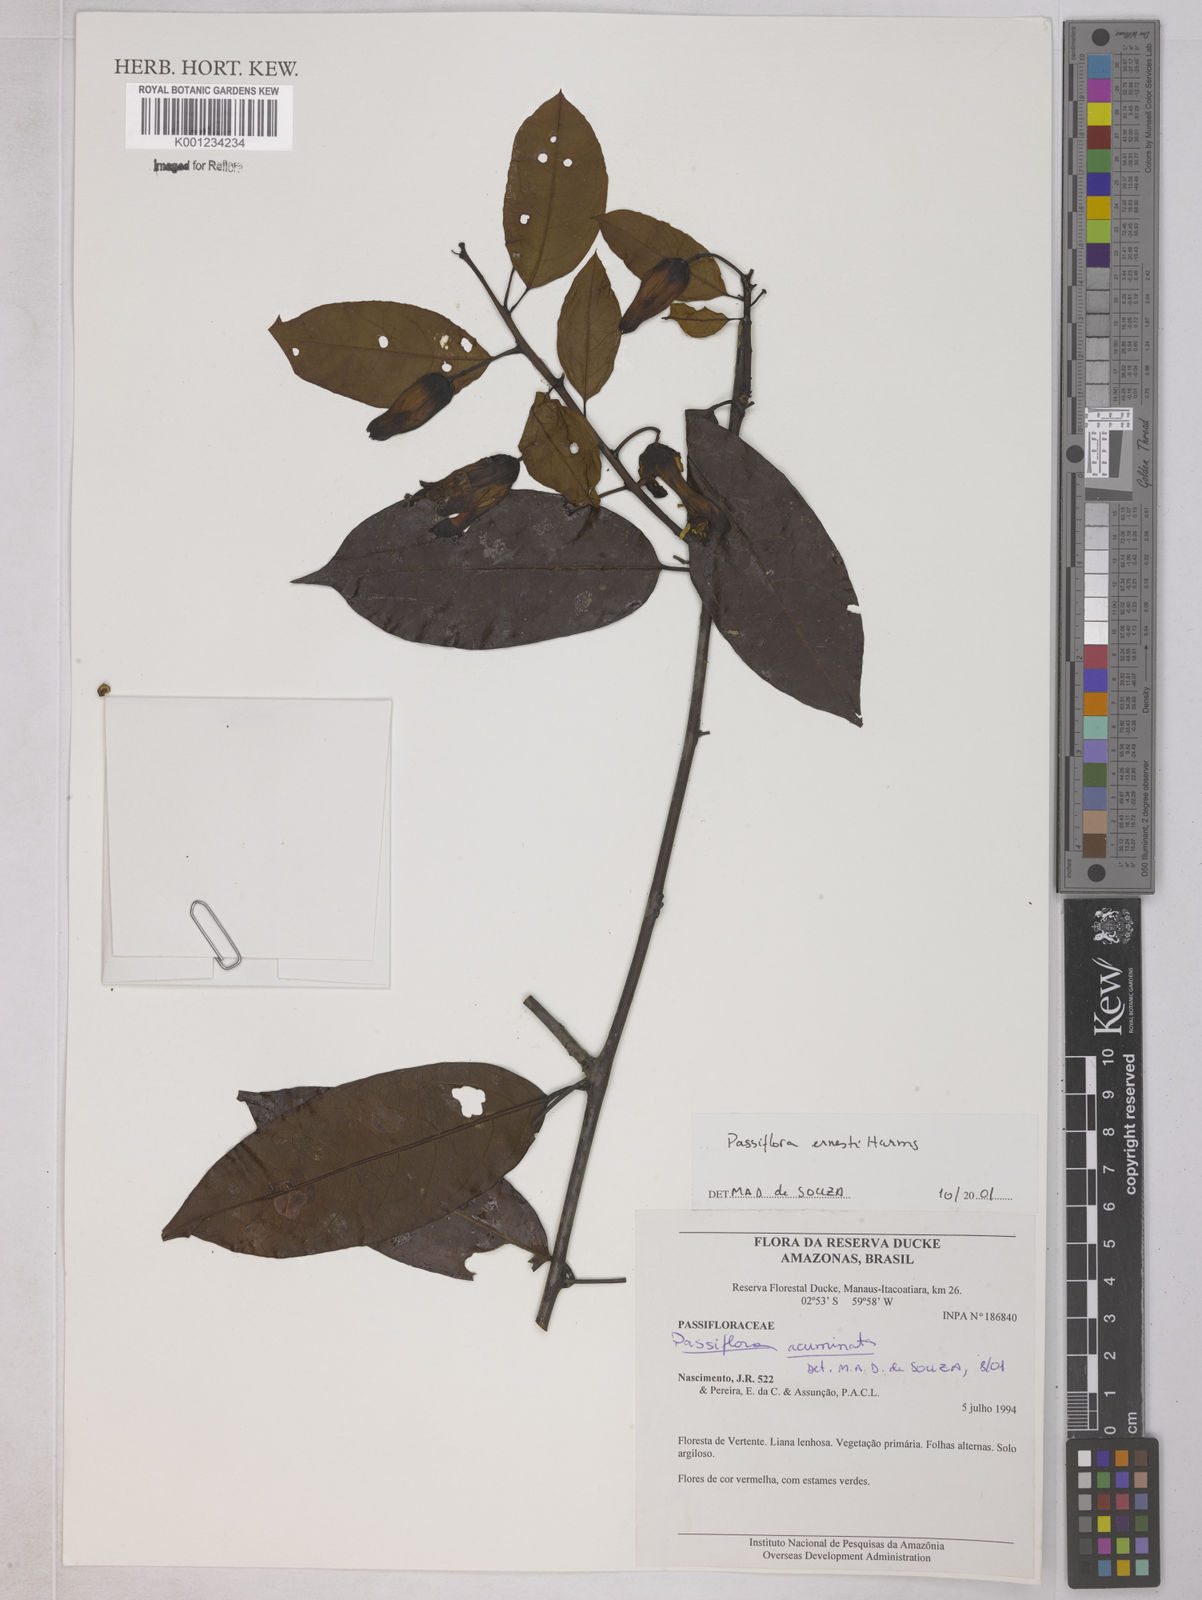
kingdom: Plantae
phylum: Tracheophyta
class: Magnoliopsida
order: Malpighiales
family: Passifloraceae
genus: Passiflora
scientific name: Passiflora ernestii
